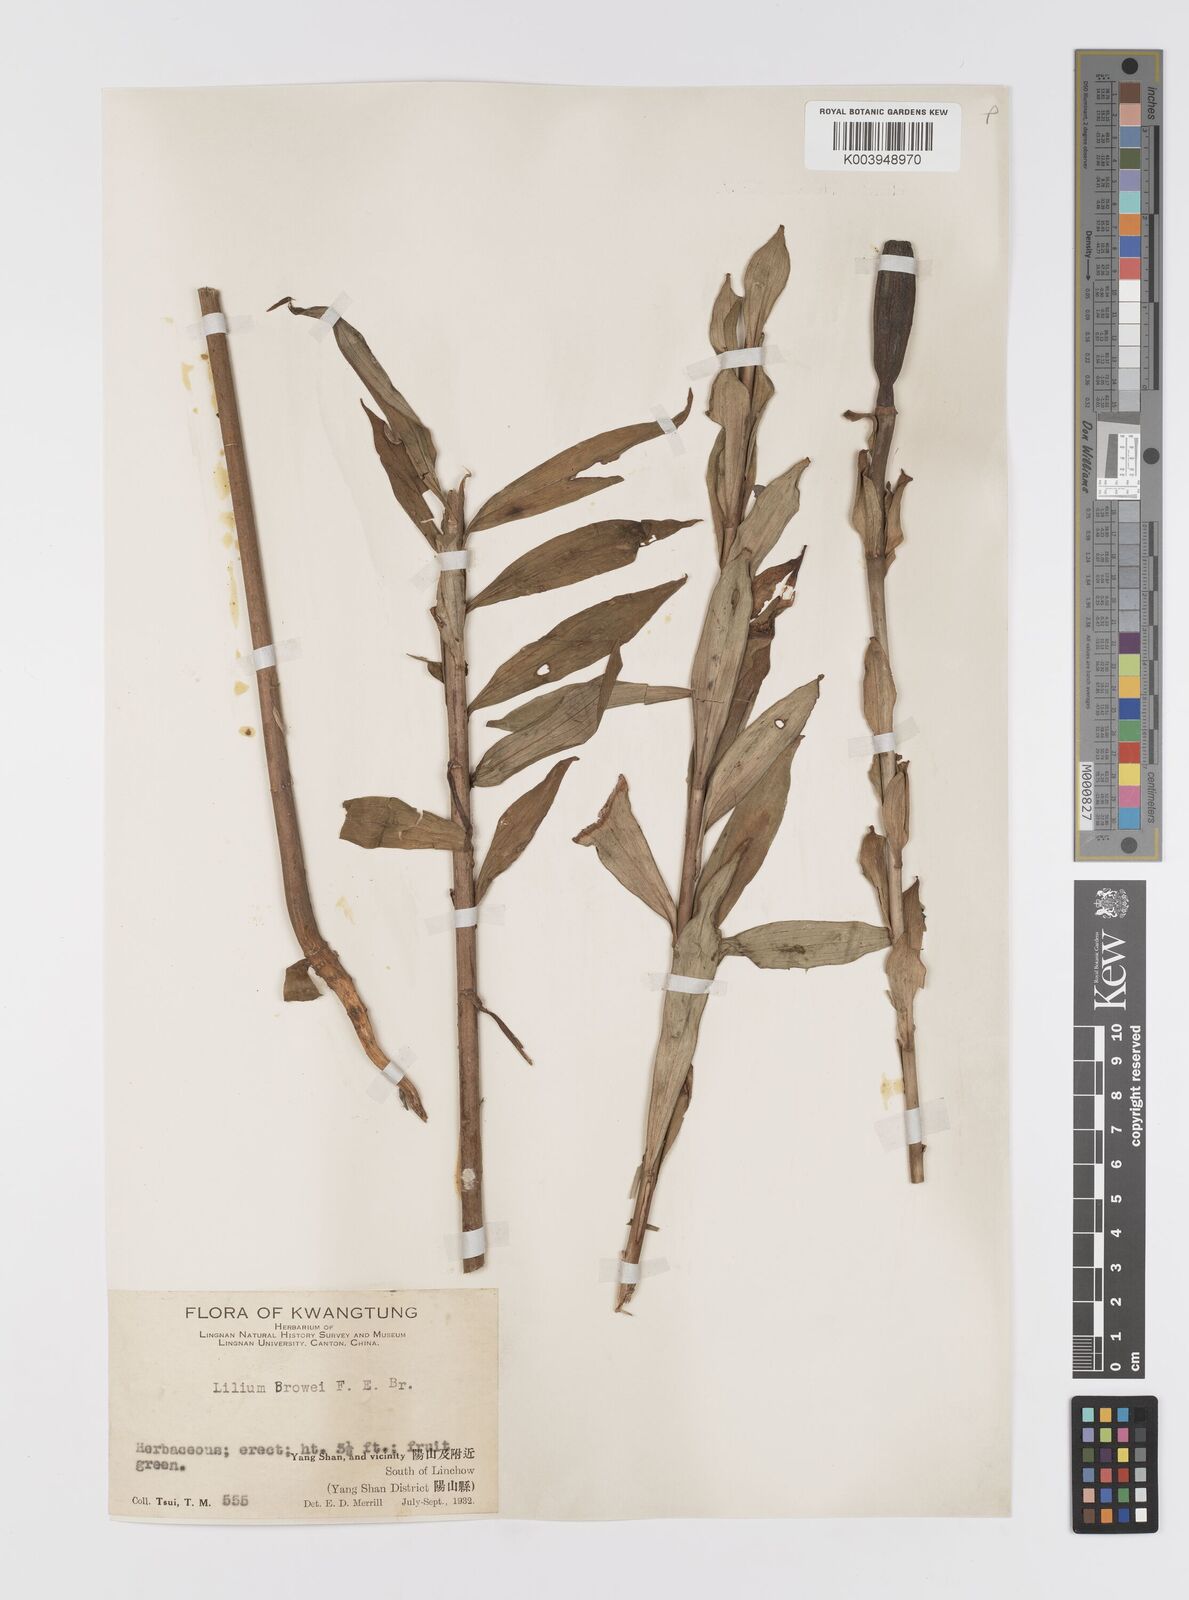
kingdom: Plantae
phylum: Tracheophyta
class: Liliopsida
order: Liliales
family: Liliaceae
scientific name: Liliaceae
